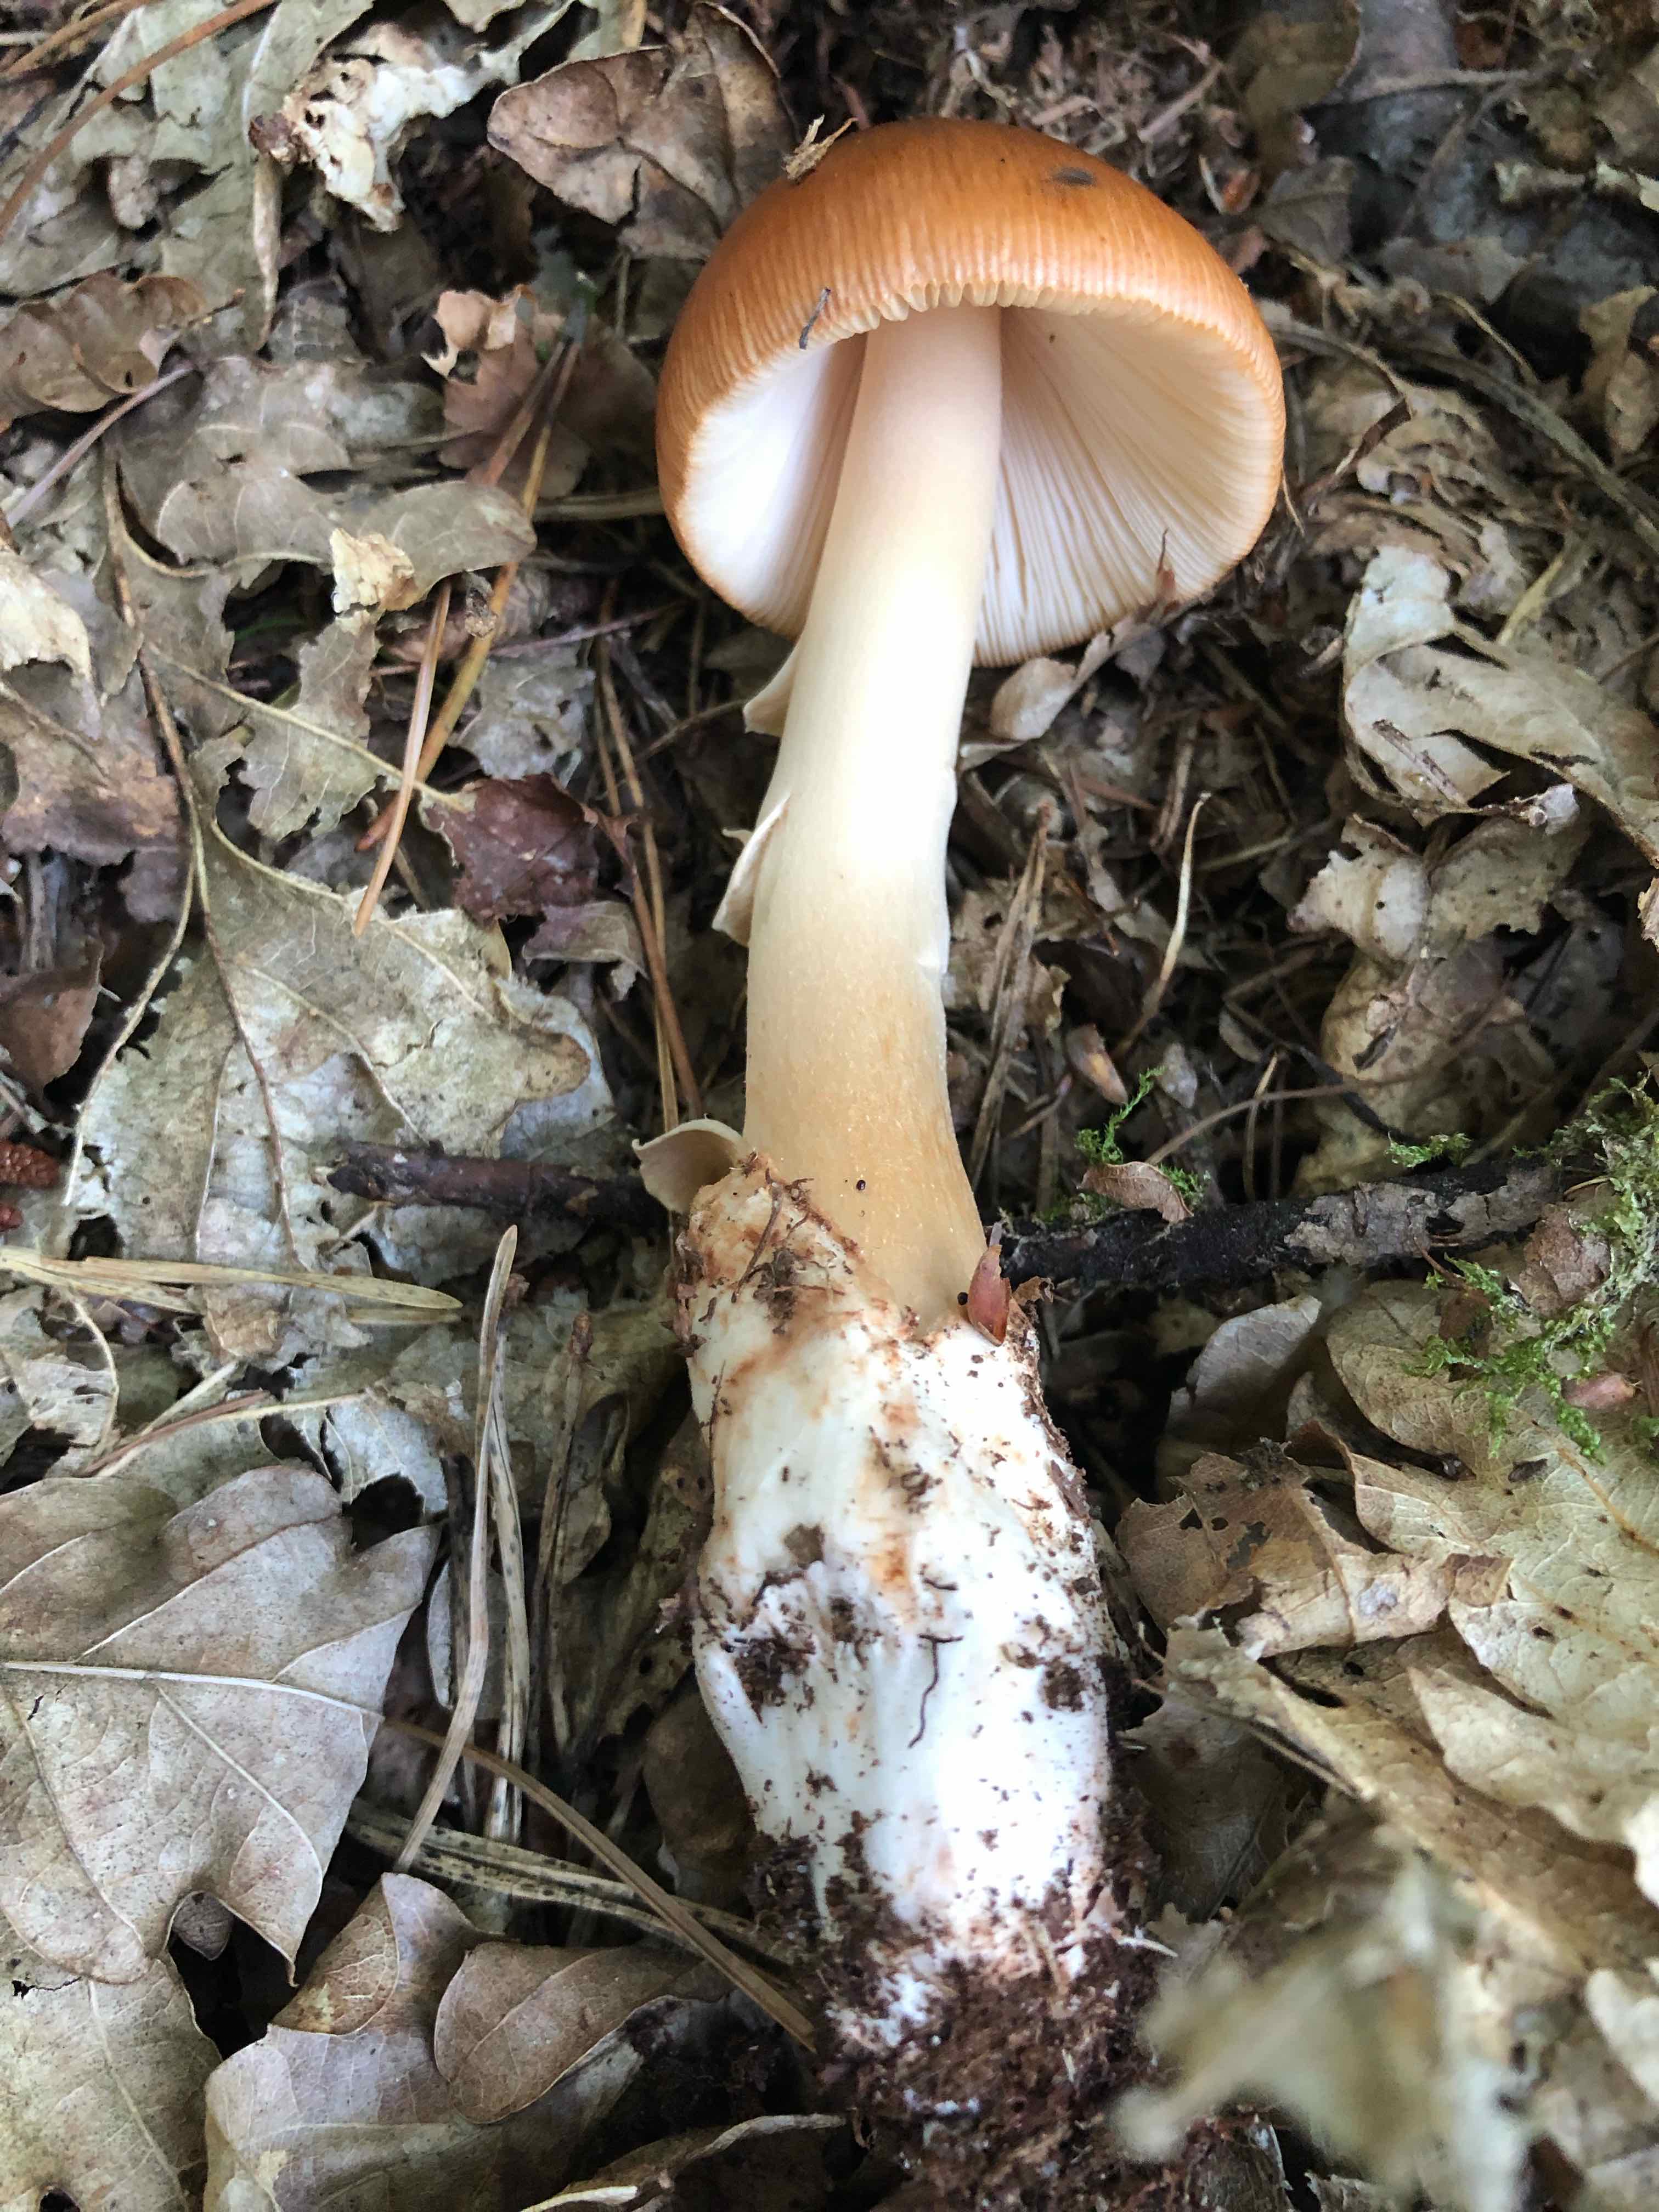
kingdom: Fungi
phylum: Basidiomycota
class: Agaricomycetes
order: Agaricales
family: Amanitaceae
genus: Amanita
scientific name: Amanita fulva
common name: brun kam-fluesvamp
